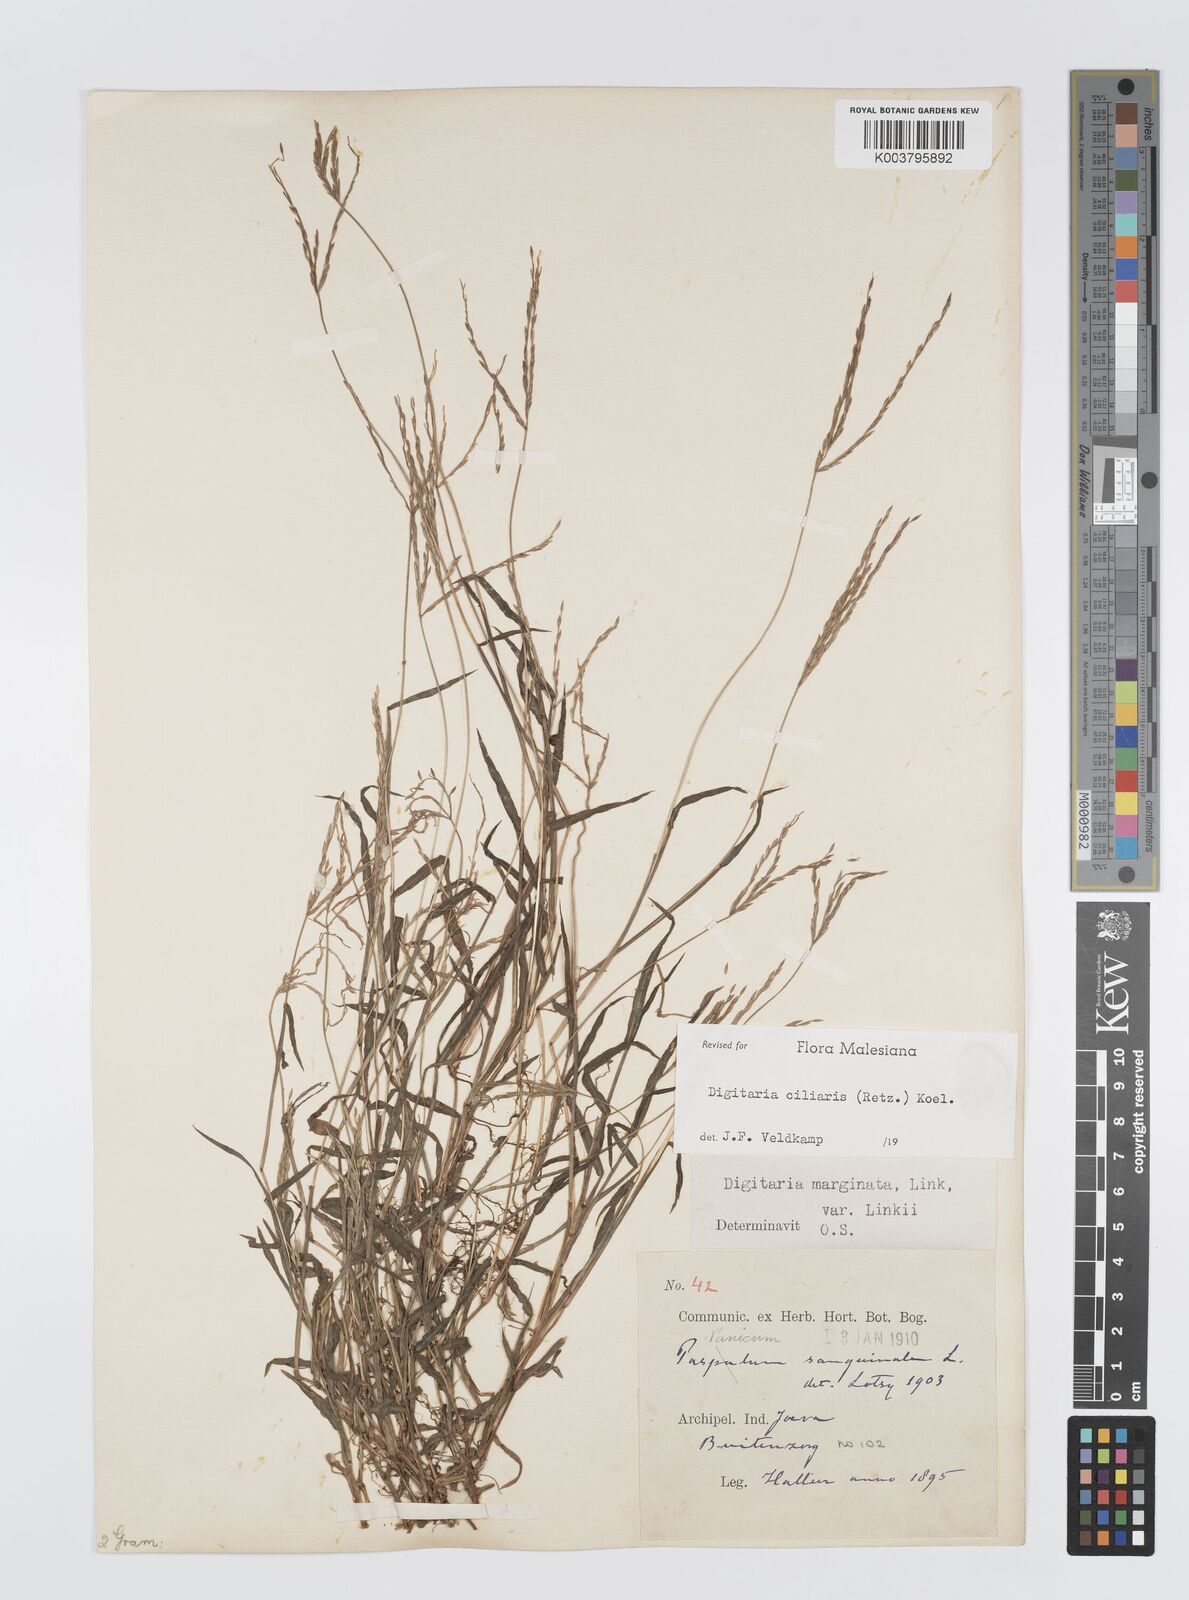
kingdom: Plantae
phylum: Tracheophyta
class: Liliopsida
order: Poales
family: Poaceae
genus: Digitaria
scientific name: Digitaria ciliaris
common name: Tropical finger-grass
